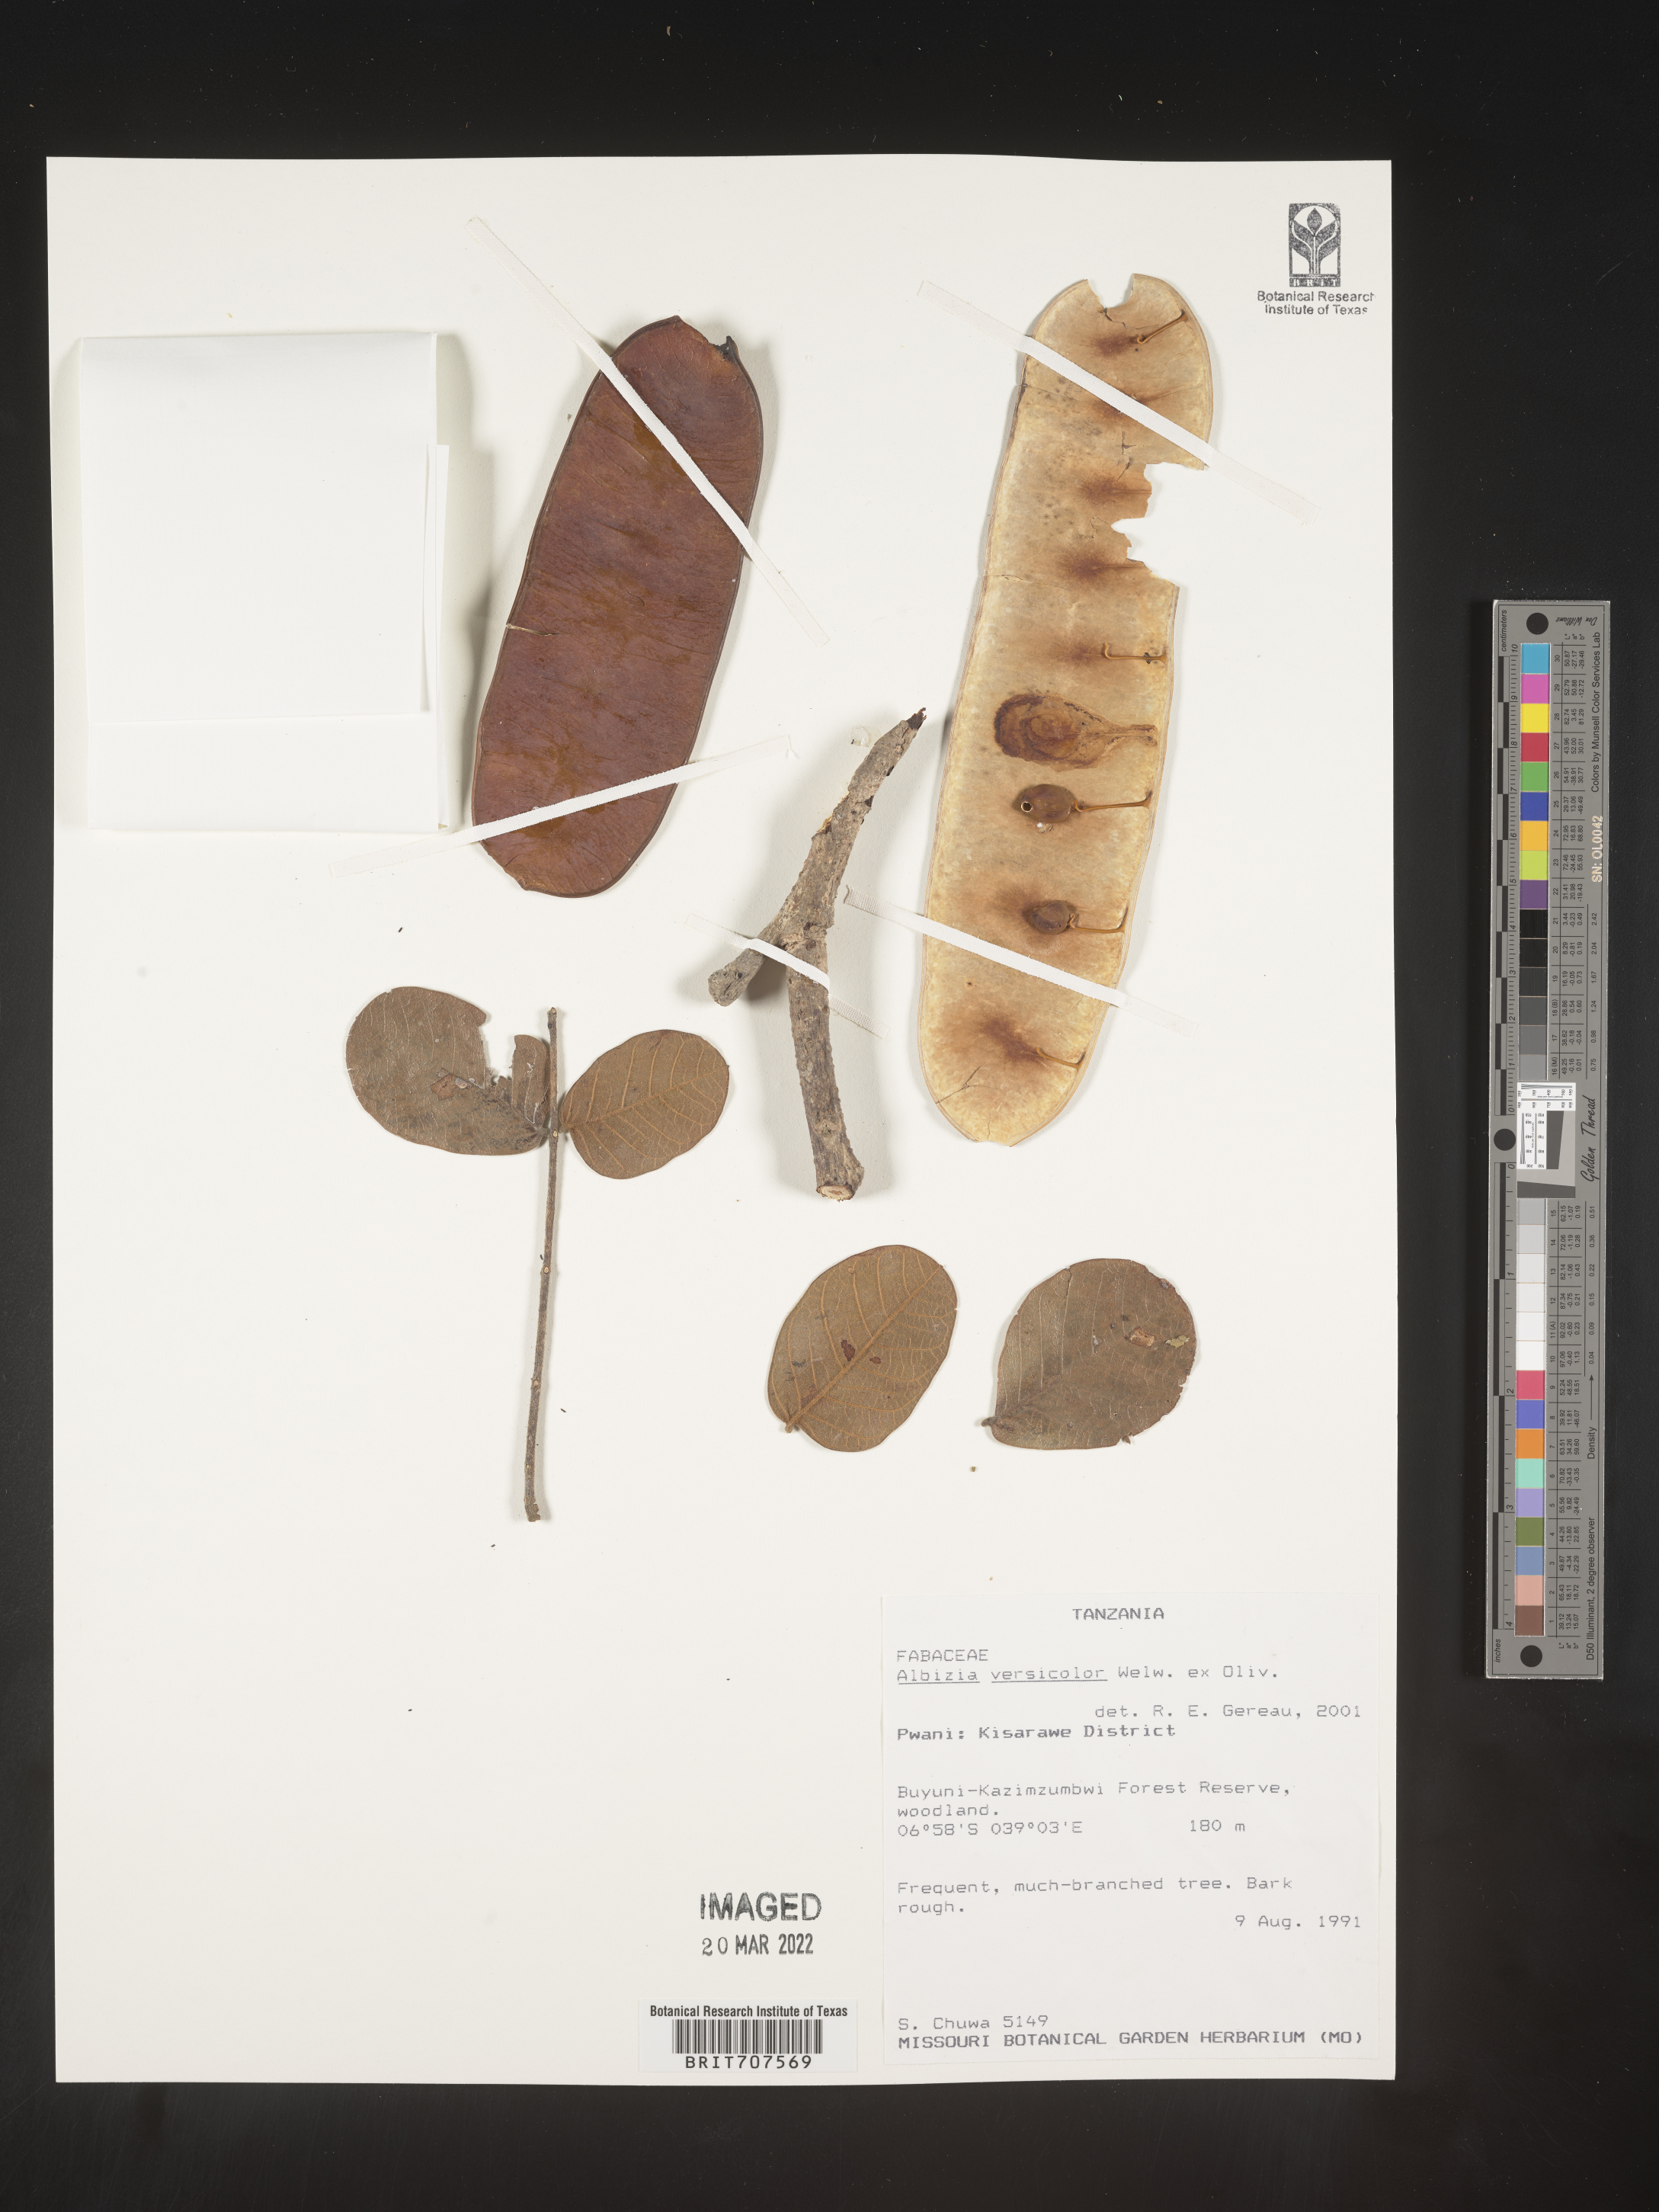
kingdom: Plantae
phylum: Tracheophyta
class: Magnoliopsida
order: Fabales
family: Fabaceae
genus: Albizia
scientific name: Albizia
